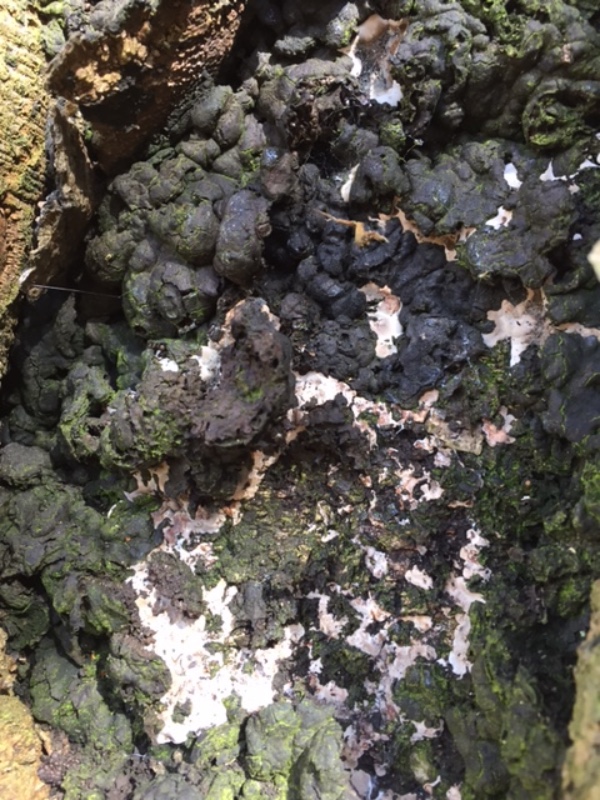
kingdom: Fungi
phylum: Ascomycota
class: Sordariomycetes
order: Xylariales
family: Xylariaceae
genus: Kretzschmaria
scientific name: Kretzschmaria deusta
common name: stor kulsvamp
